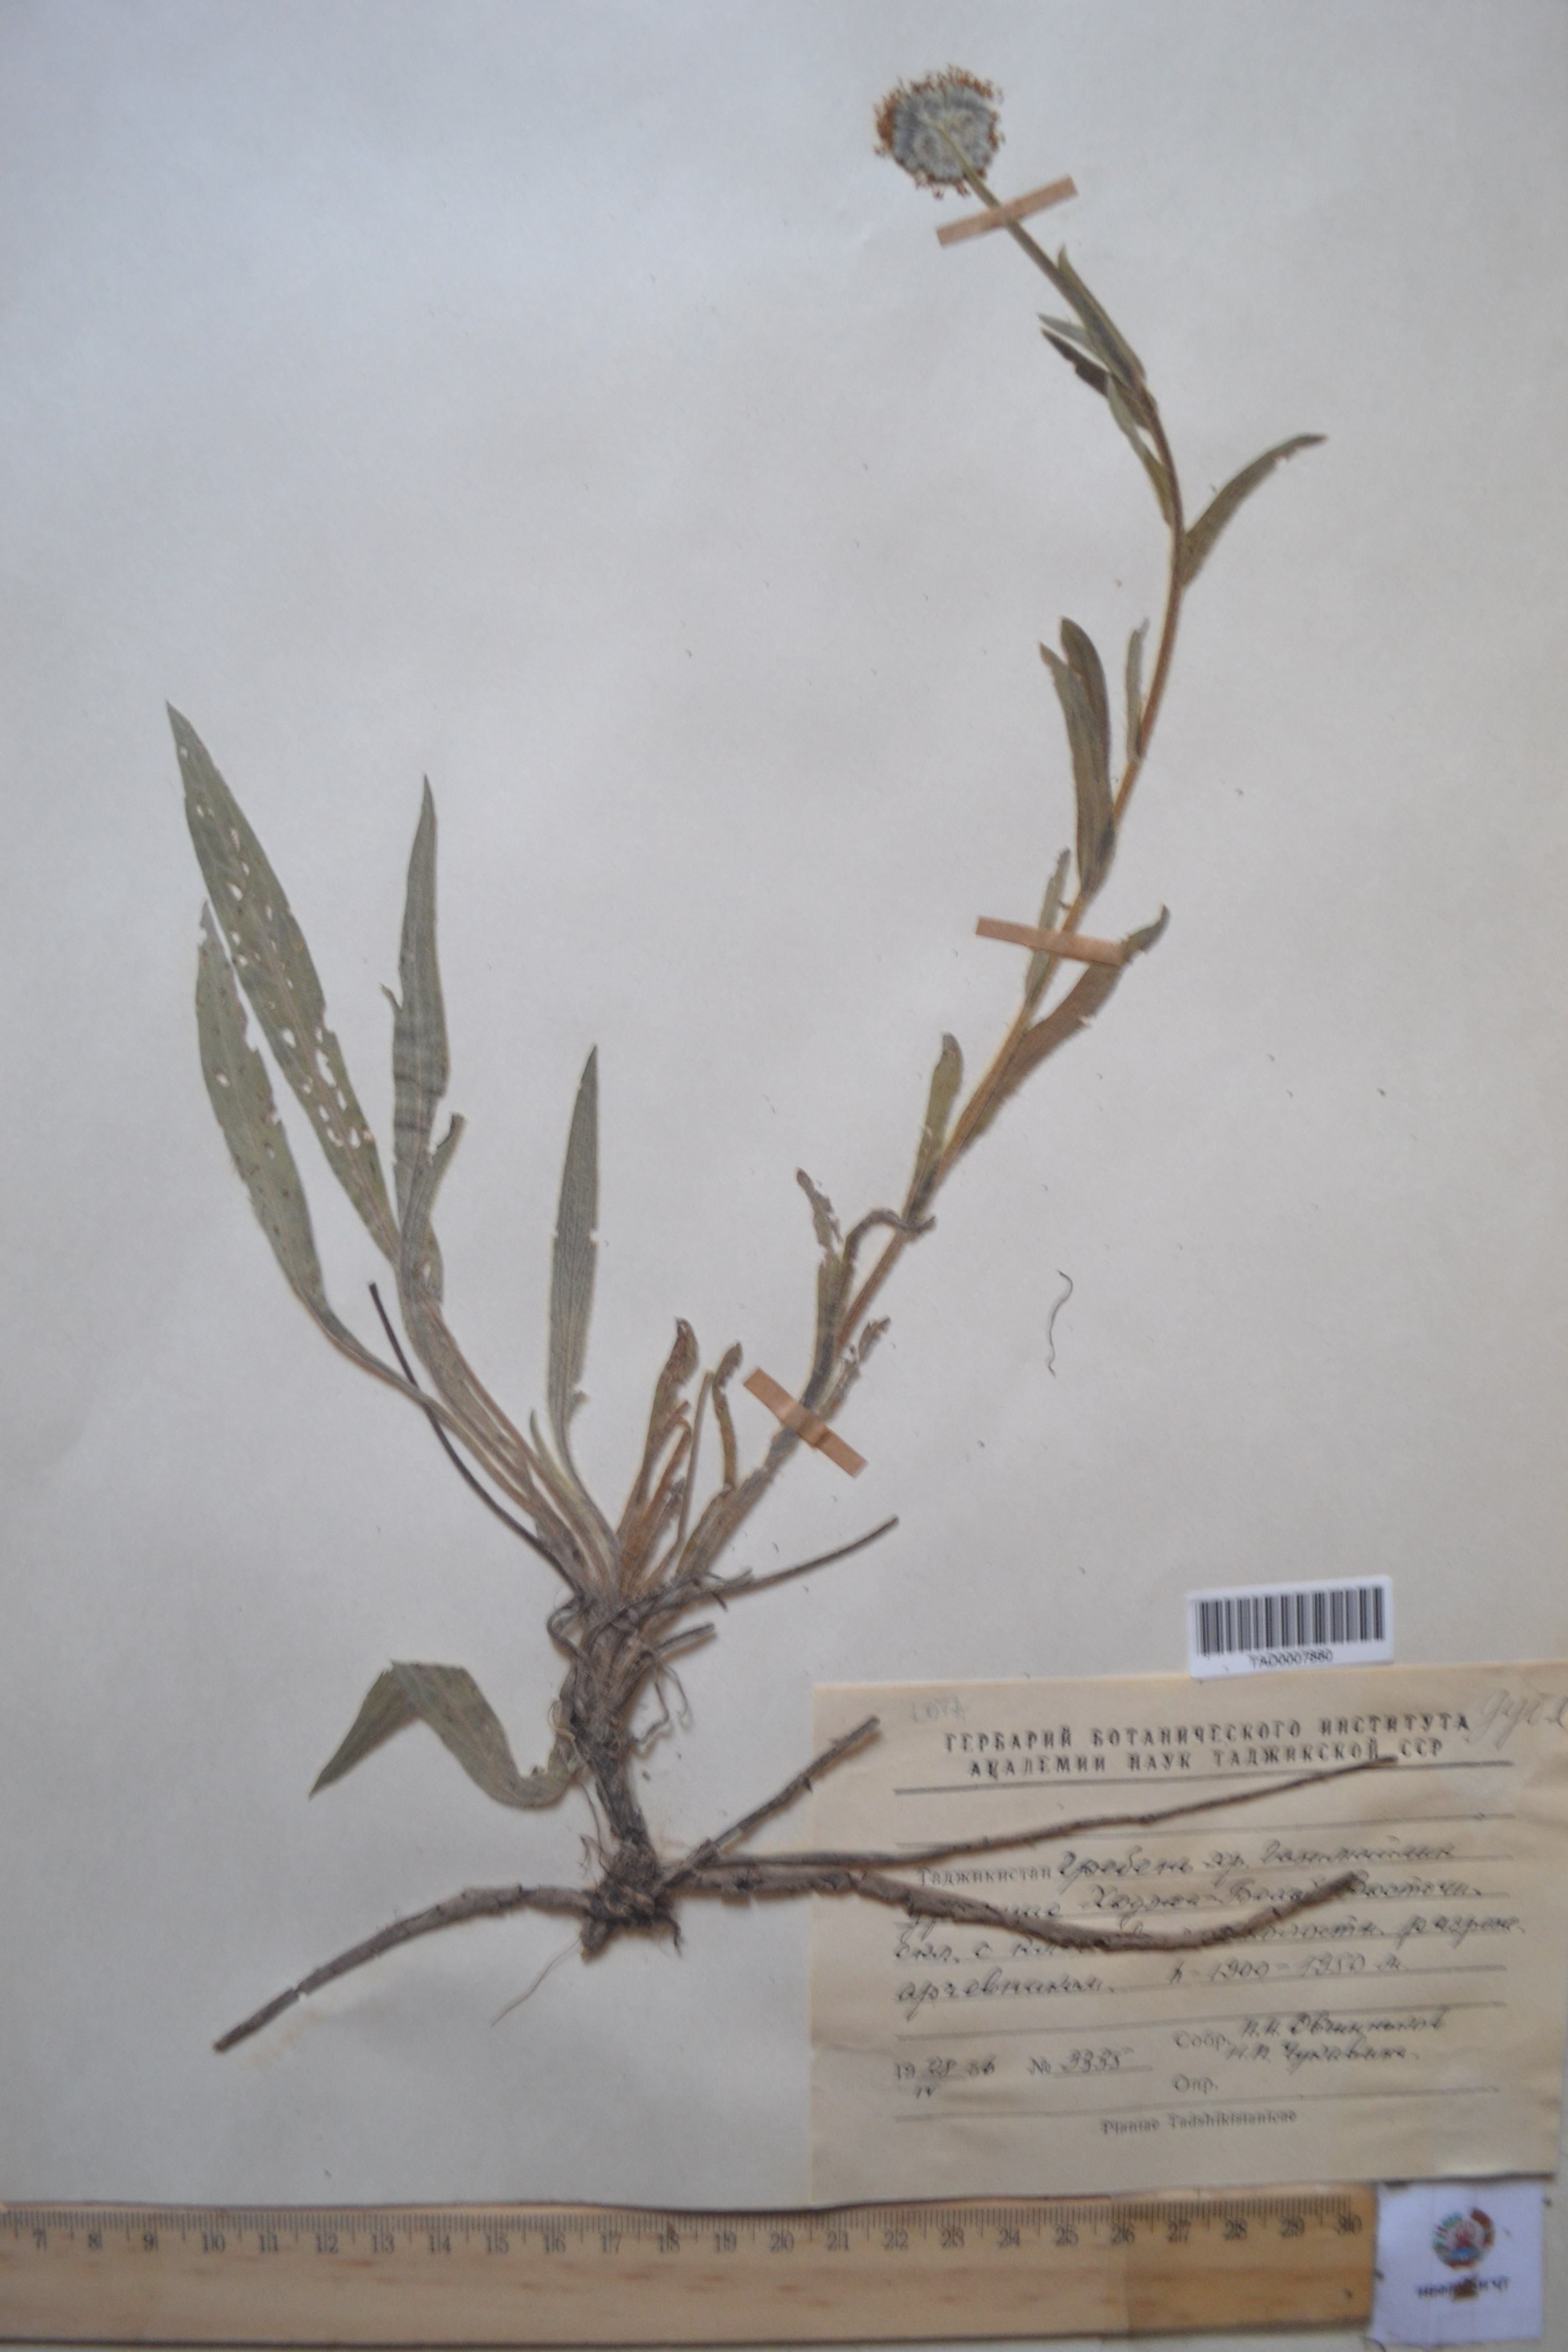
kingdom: Plantae
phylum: Tracheophyta
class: Magnoliopsida
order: Boraginales
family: Boraginaceae
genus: Solenanthus
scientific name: Solenanthus hirsutus
